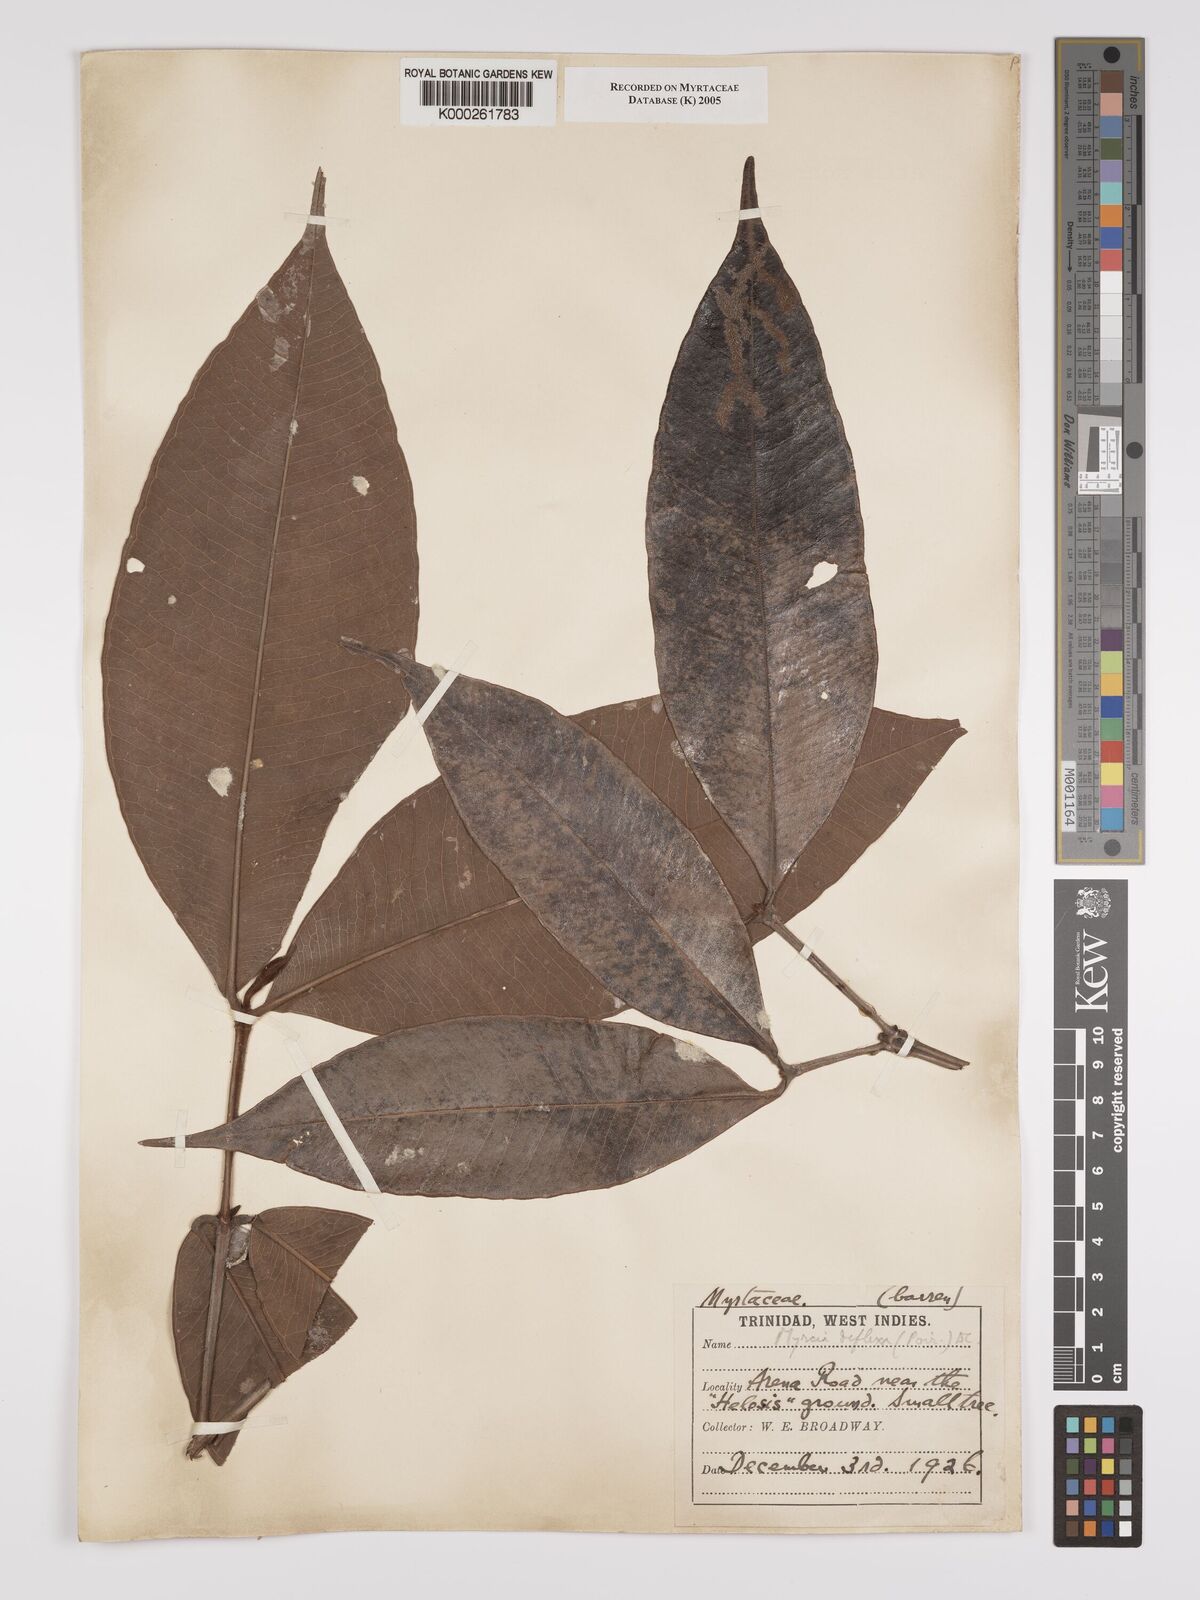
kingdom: Plantae
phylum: Tracheophyta
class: Magnoliopsida
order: Myrtales
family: Myrtaceae
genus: Myrcia
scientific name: Myrcia deflexa
